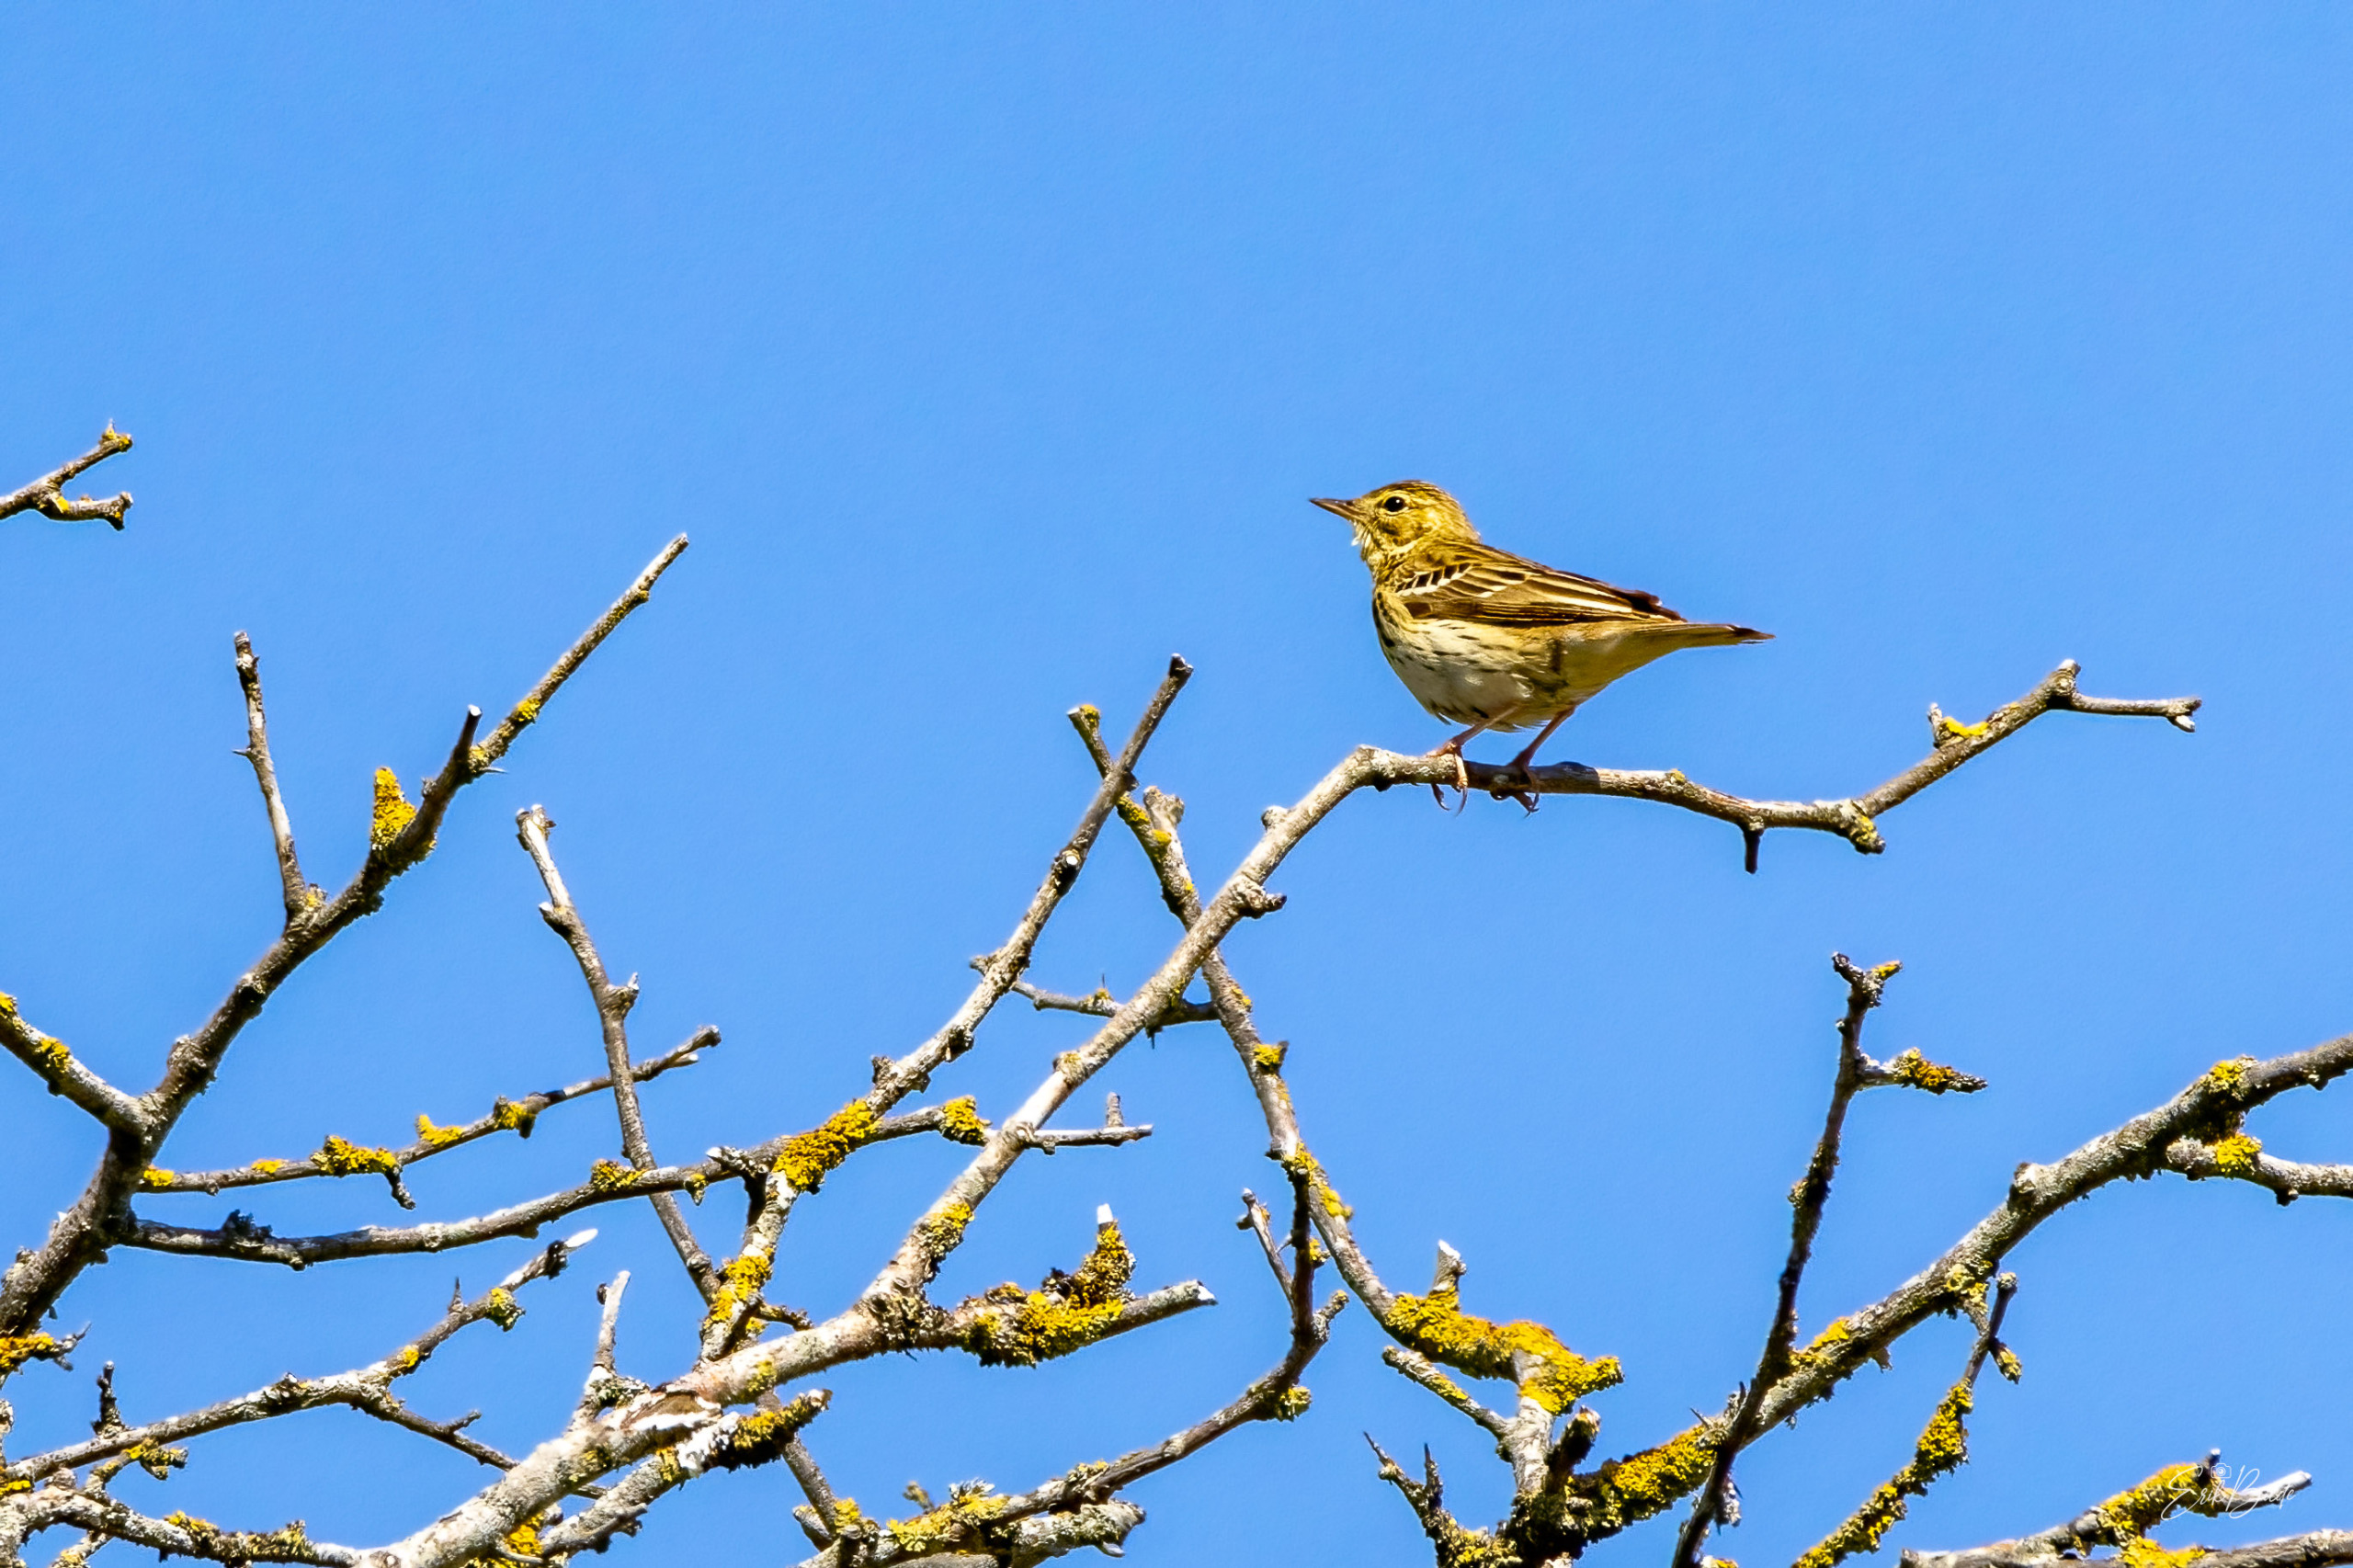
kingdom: Animalia
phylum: Chordata
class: Aves
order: Passeriformes
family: Motacillidae
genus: Anthus
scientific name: Anthus trivialis
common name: Skovpiber
